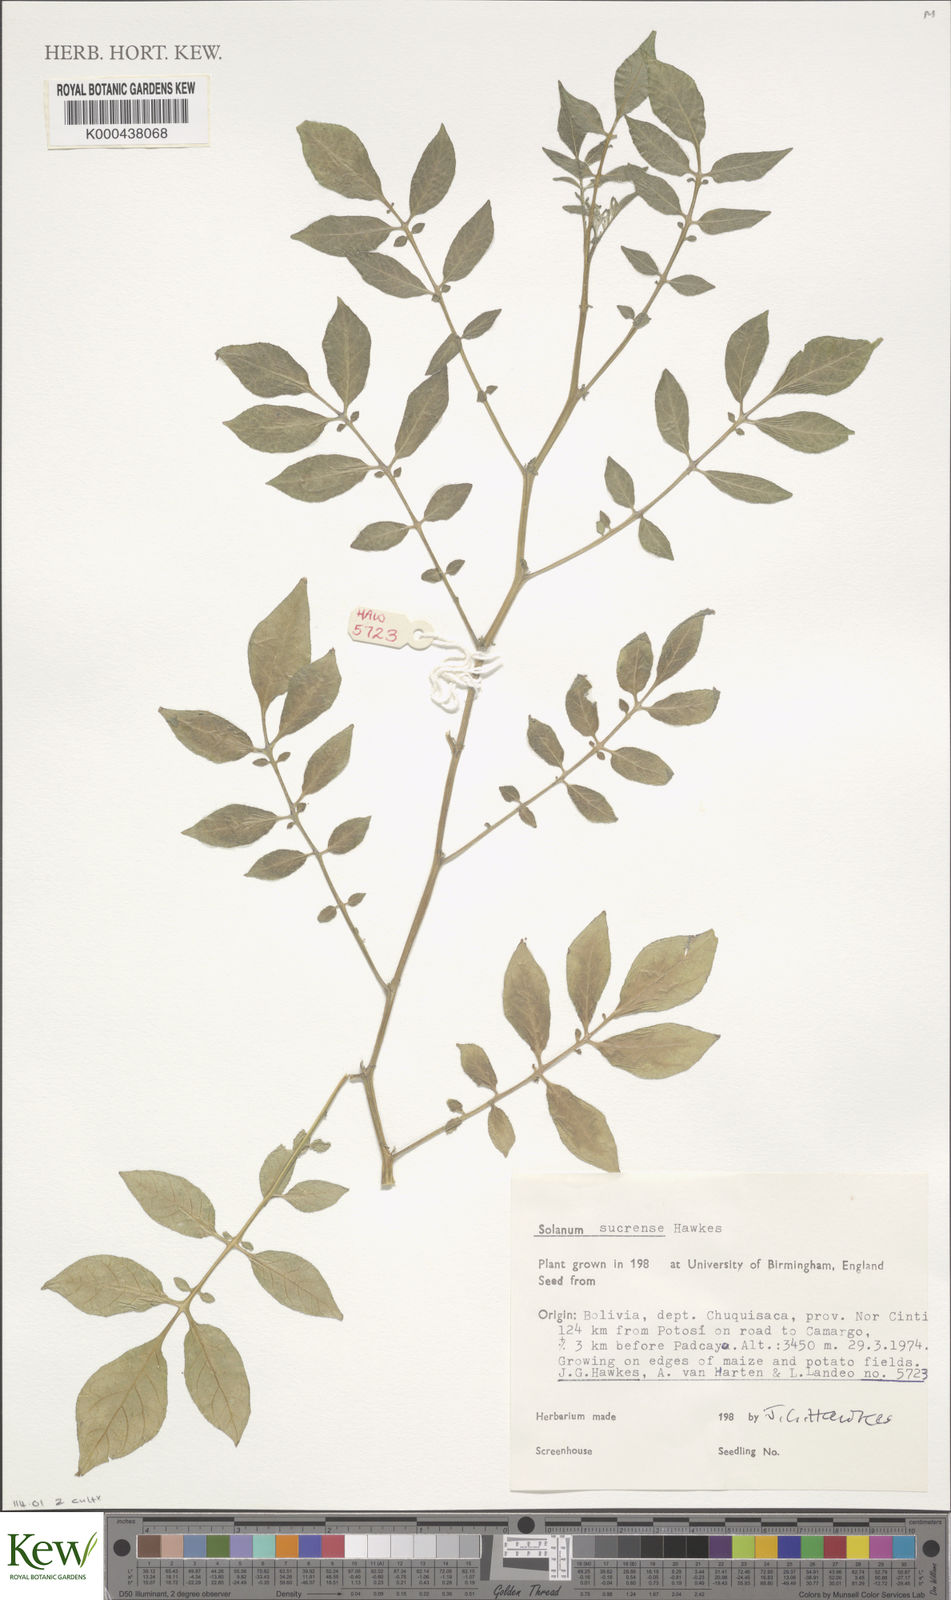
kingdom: Plantae
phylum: Tracheophyta
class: Magnoliopsida
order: Solanales
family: Solanaceae
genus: Solanum
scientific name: Solanum brevicaule
